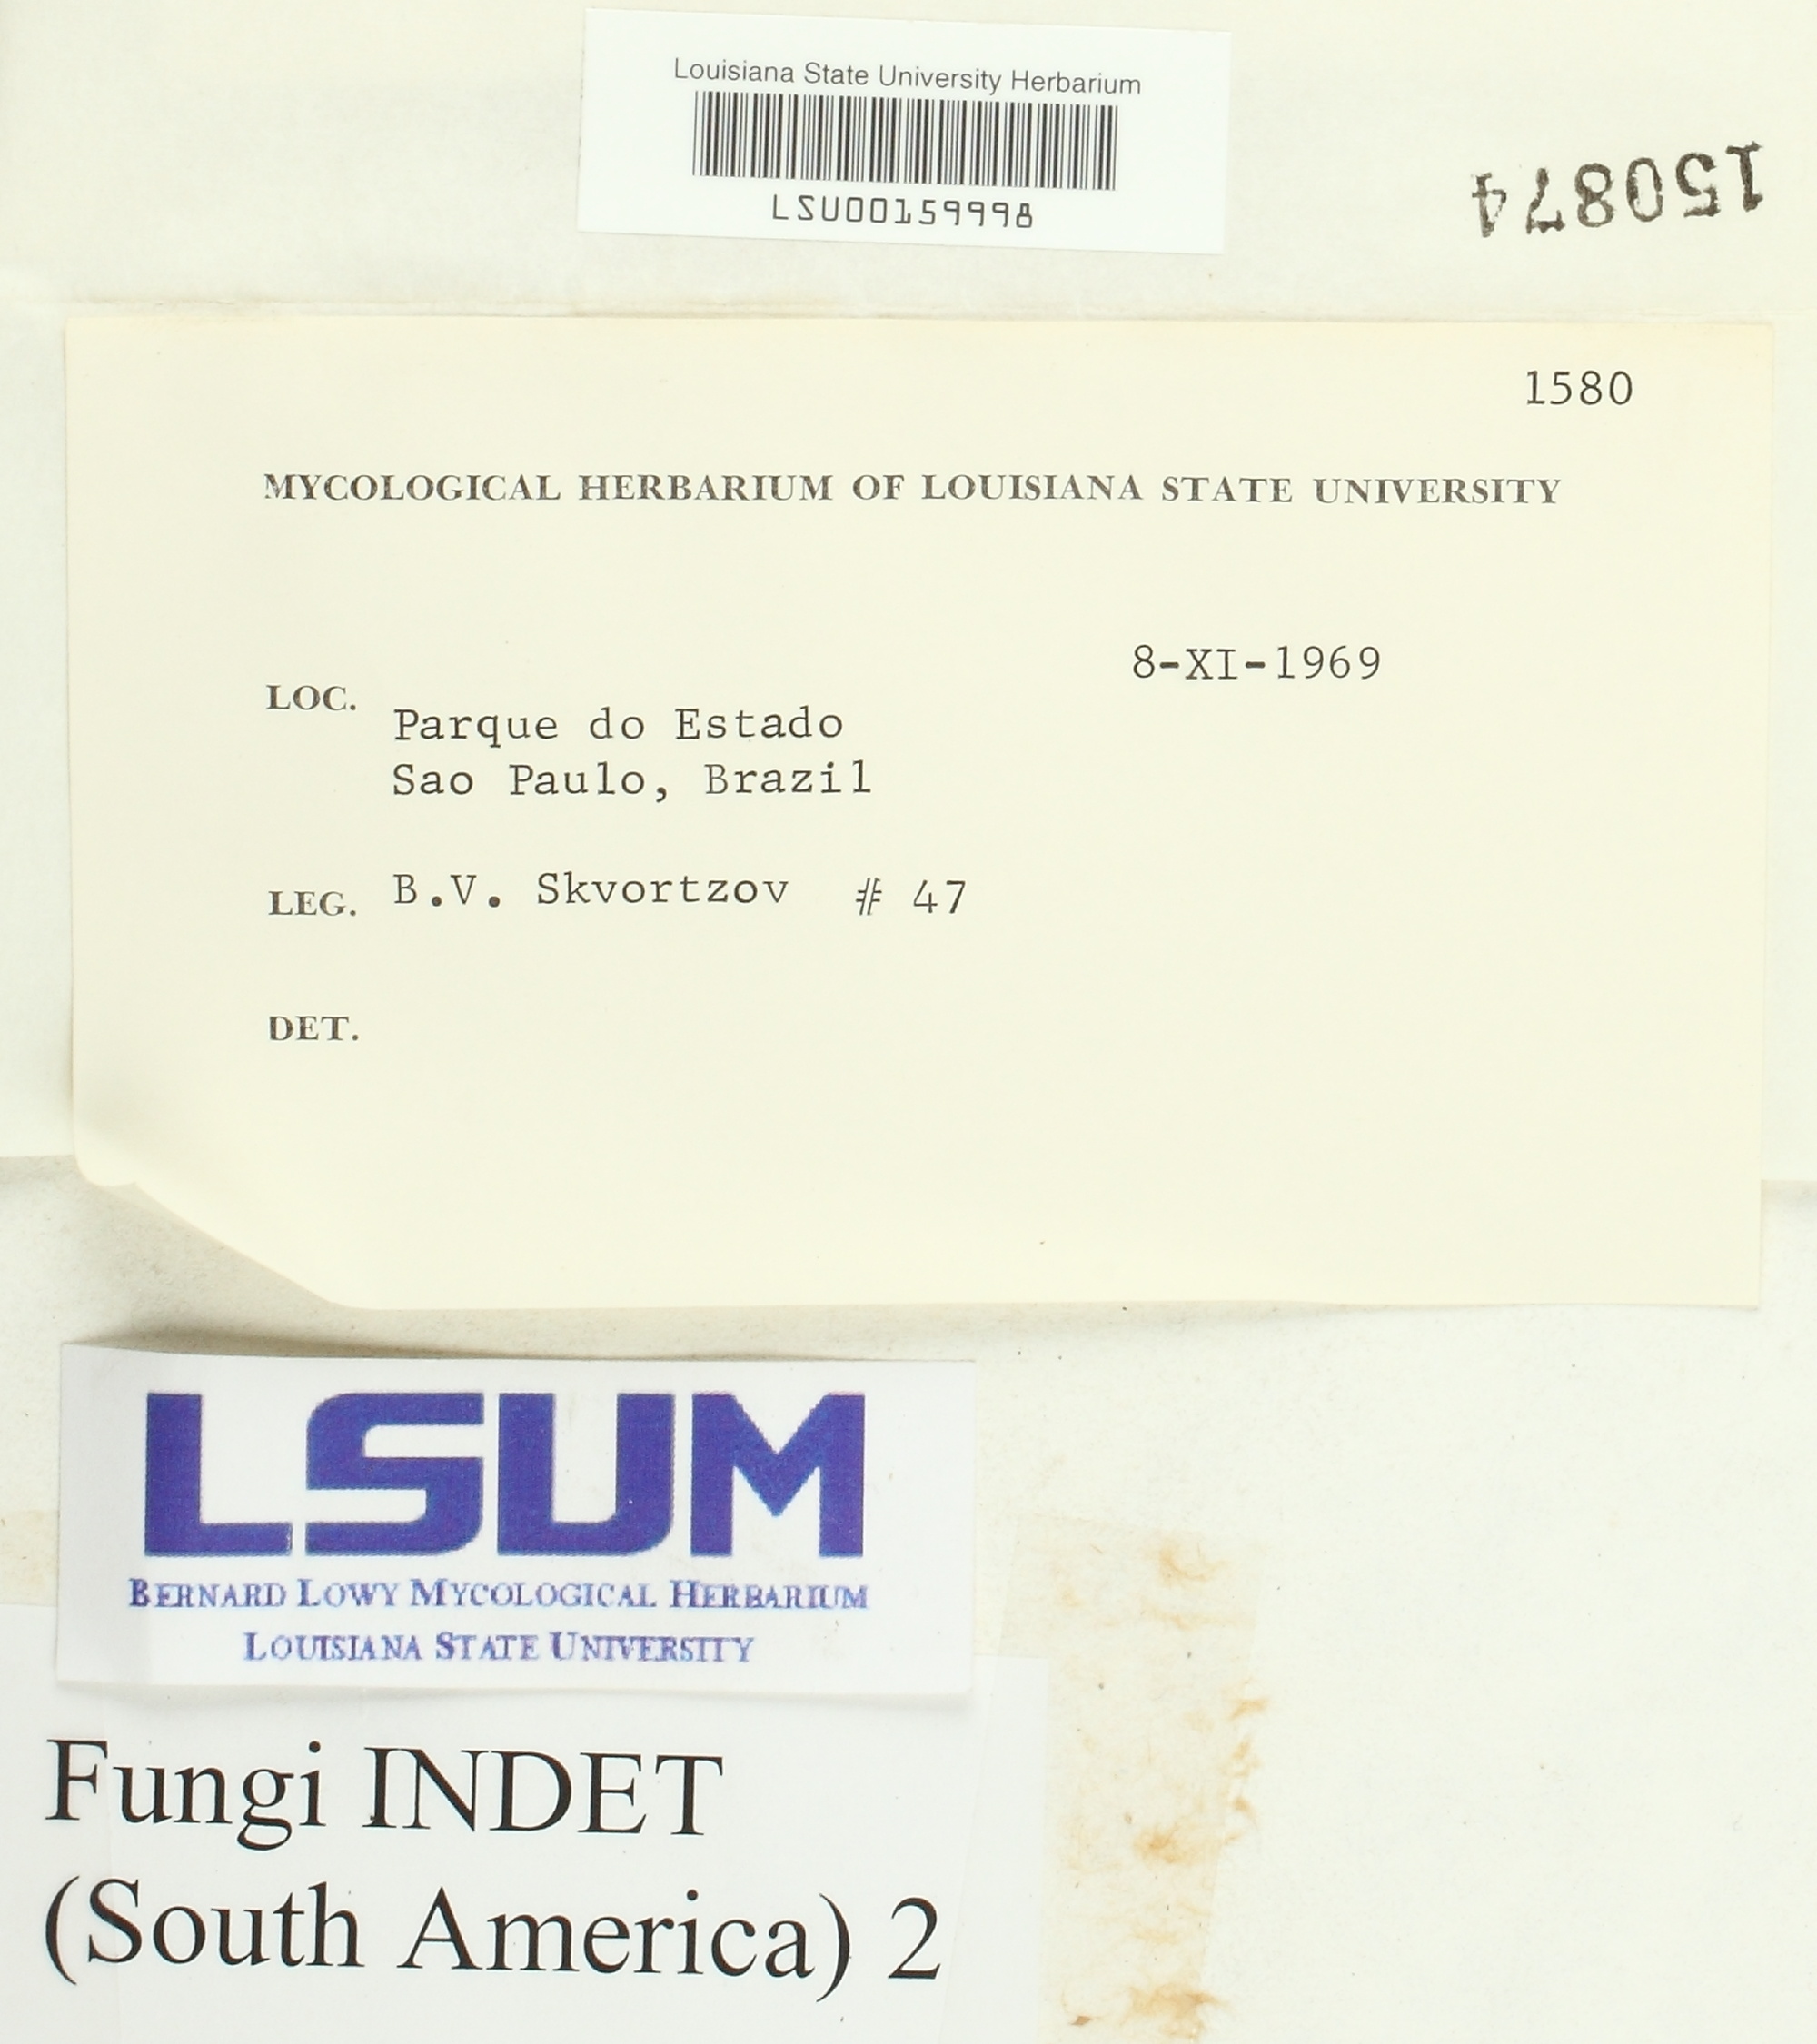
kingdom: Fungi
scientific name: Fungi
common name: Fungi
